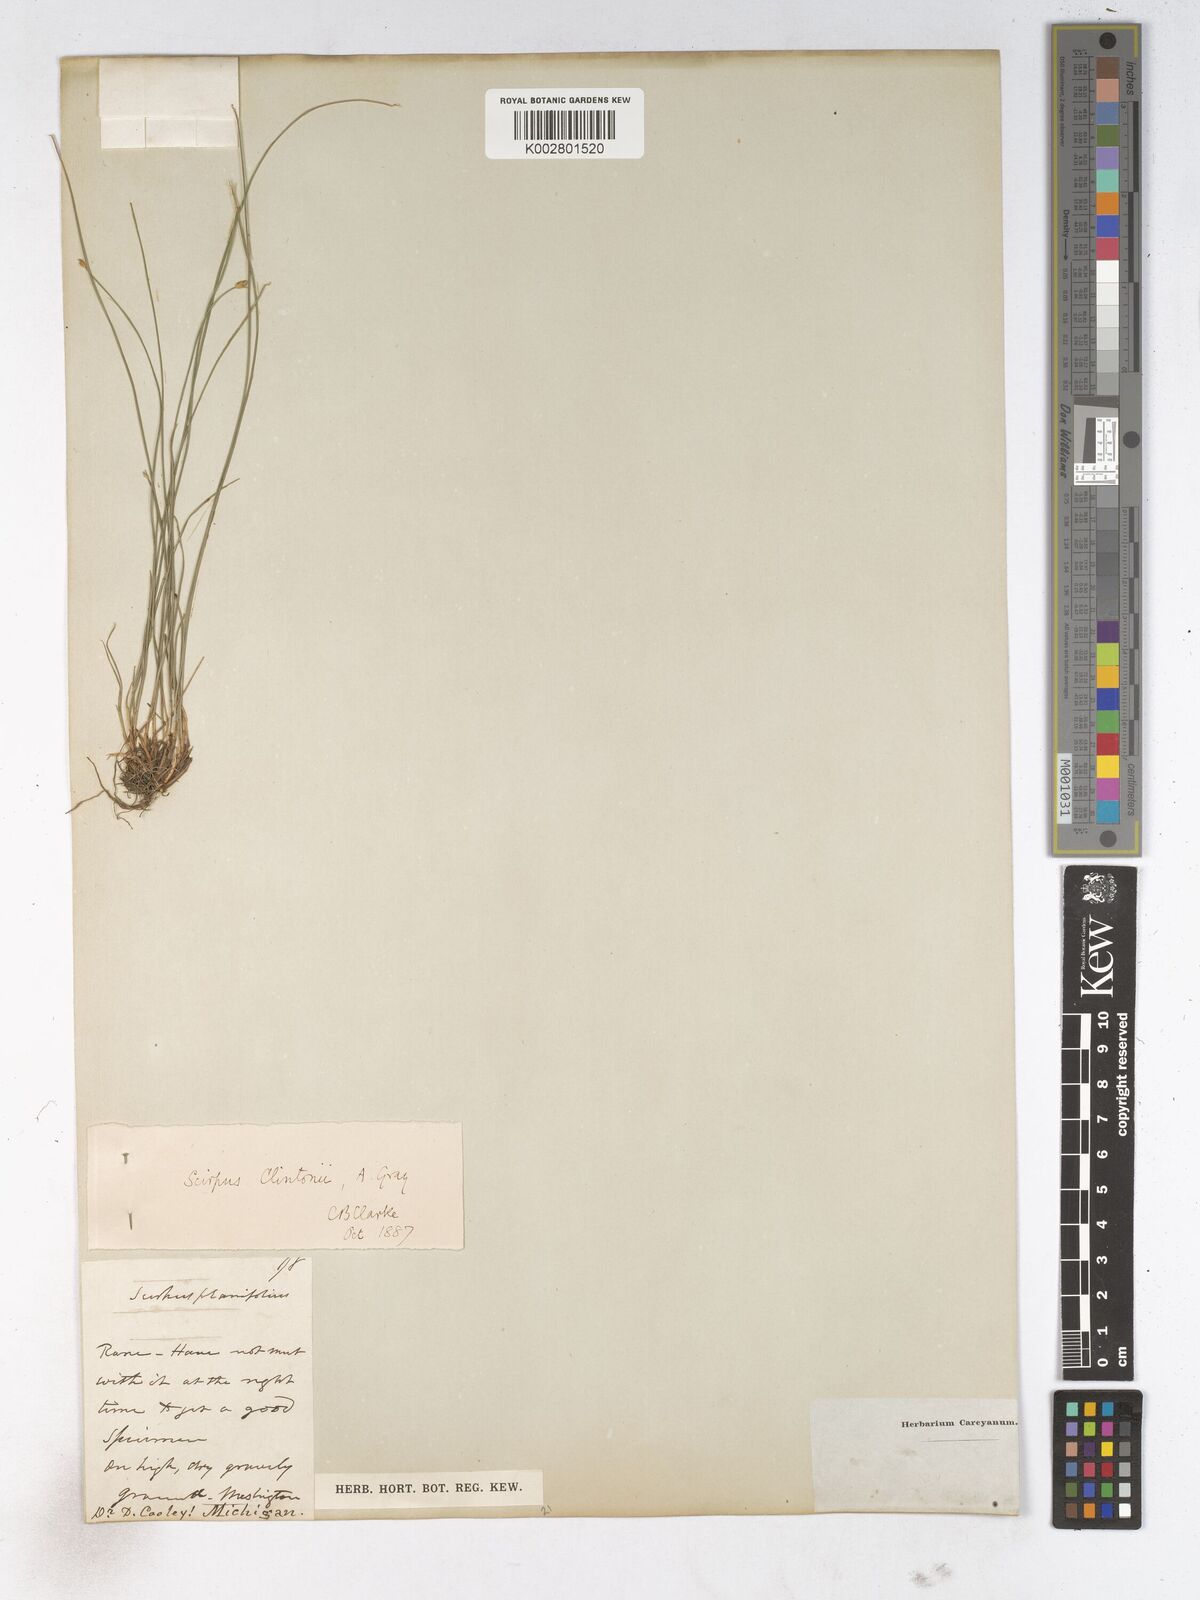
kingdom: Plantae
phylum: Tracheophyta
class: Liliopsida
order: Poales
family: Cyperaceae
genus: Trichophorum
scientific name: Trichophorum clintonii
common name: Clinton's bulrush
